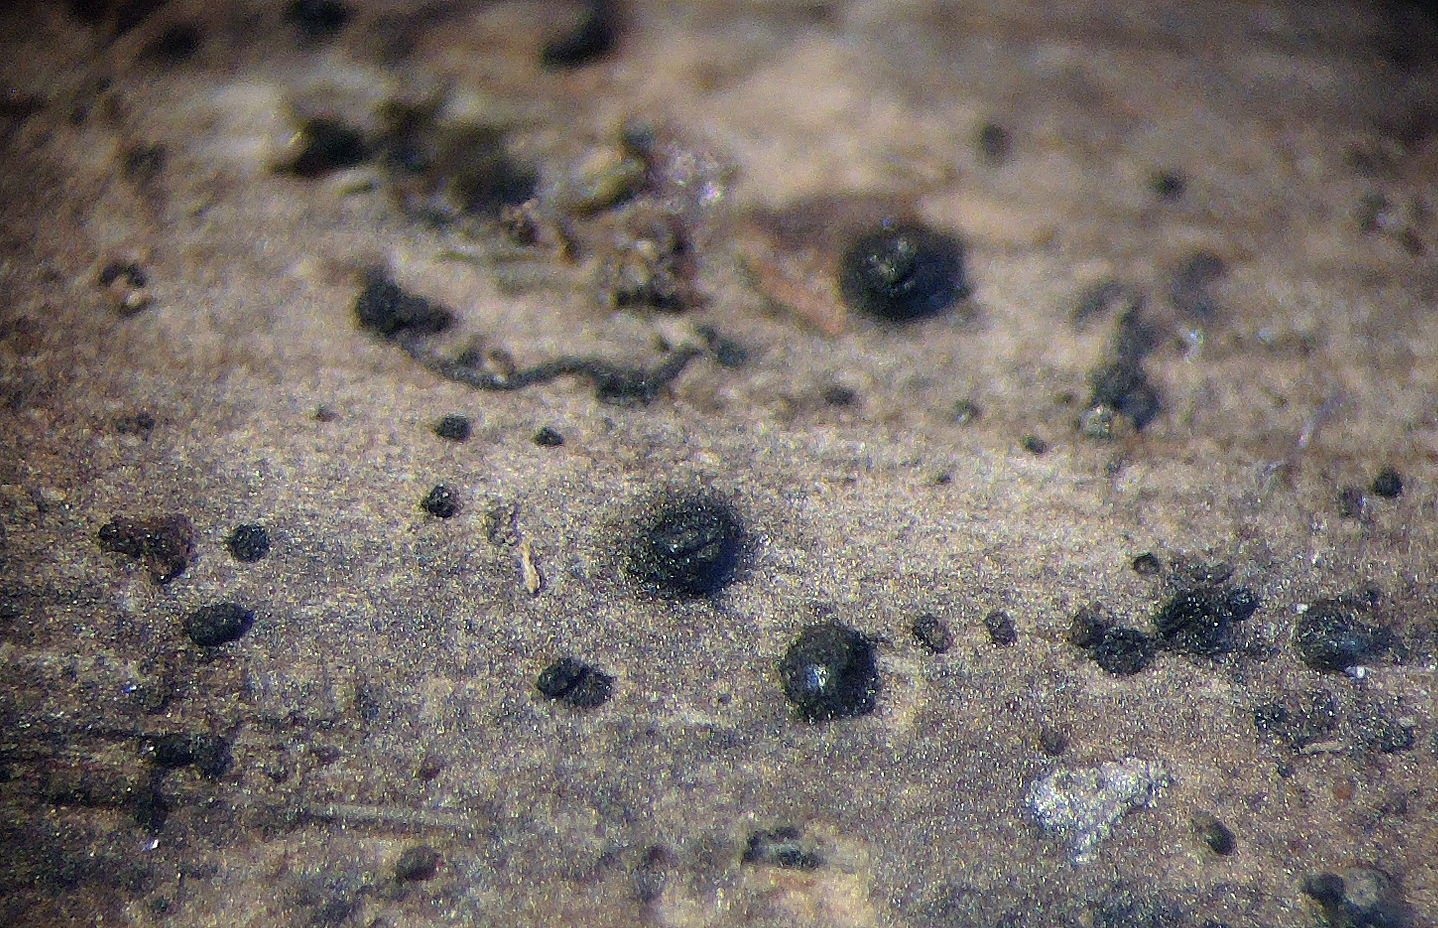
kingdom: Fungi
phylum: Ascomycota
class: Dothideomycetes
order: Pleosporales
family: Lindgomycetaceae
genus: Aquimassariosphaeria
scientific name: Aquimassariosphaeria typhicola
